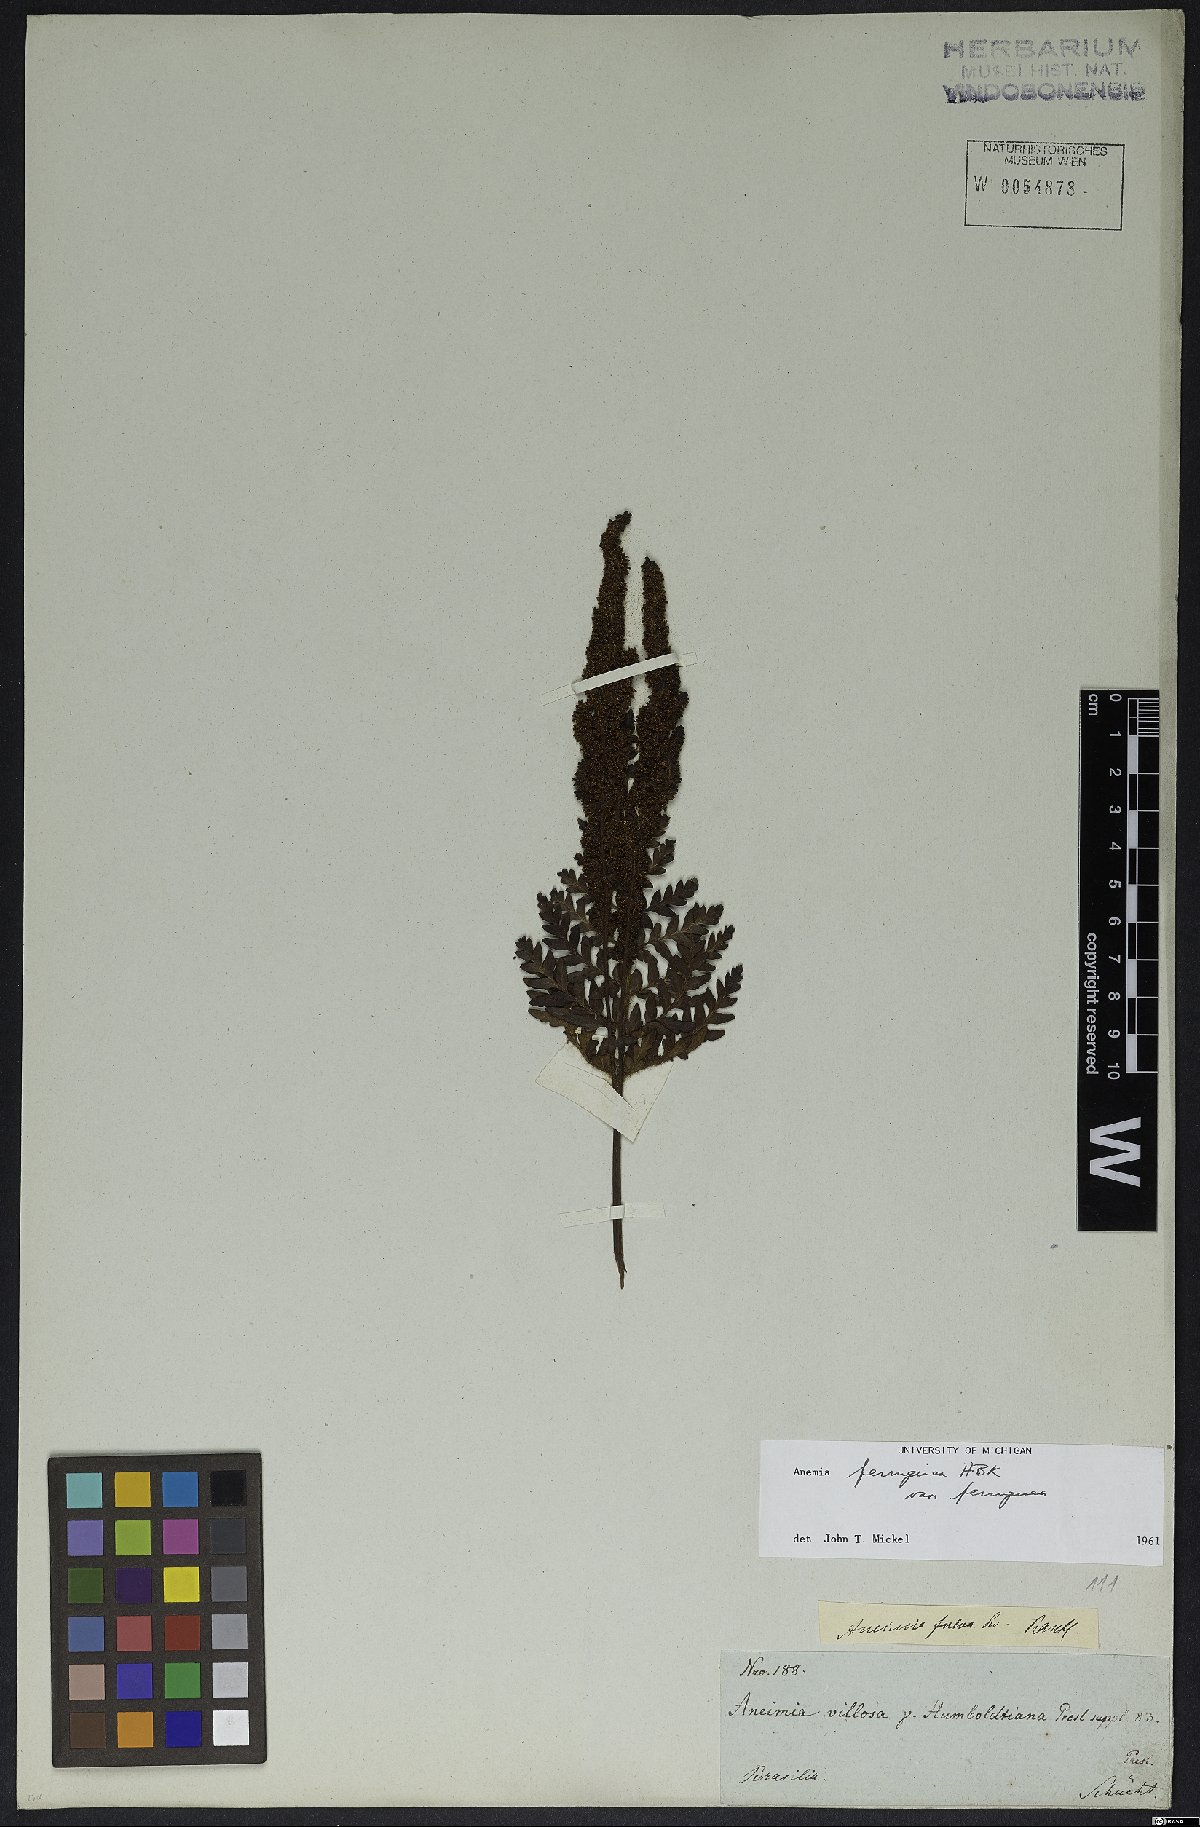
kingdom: Plantae
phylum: Tracheophyta
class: Polypodiopsida
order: Schizaeales
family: Anemiaceae
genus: Anemia
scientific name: Anemia ferruginea
